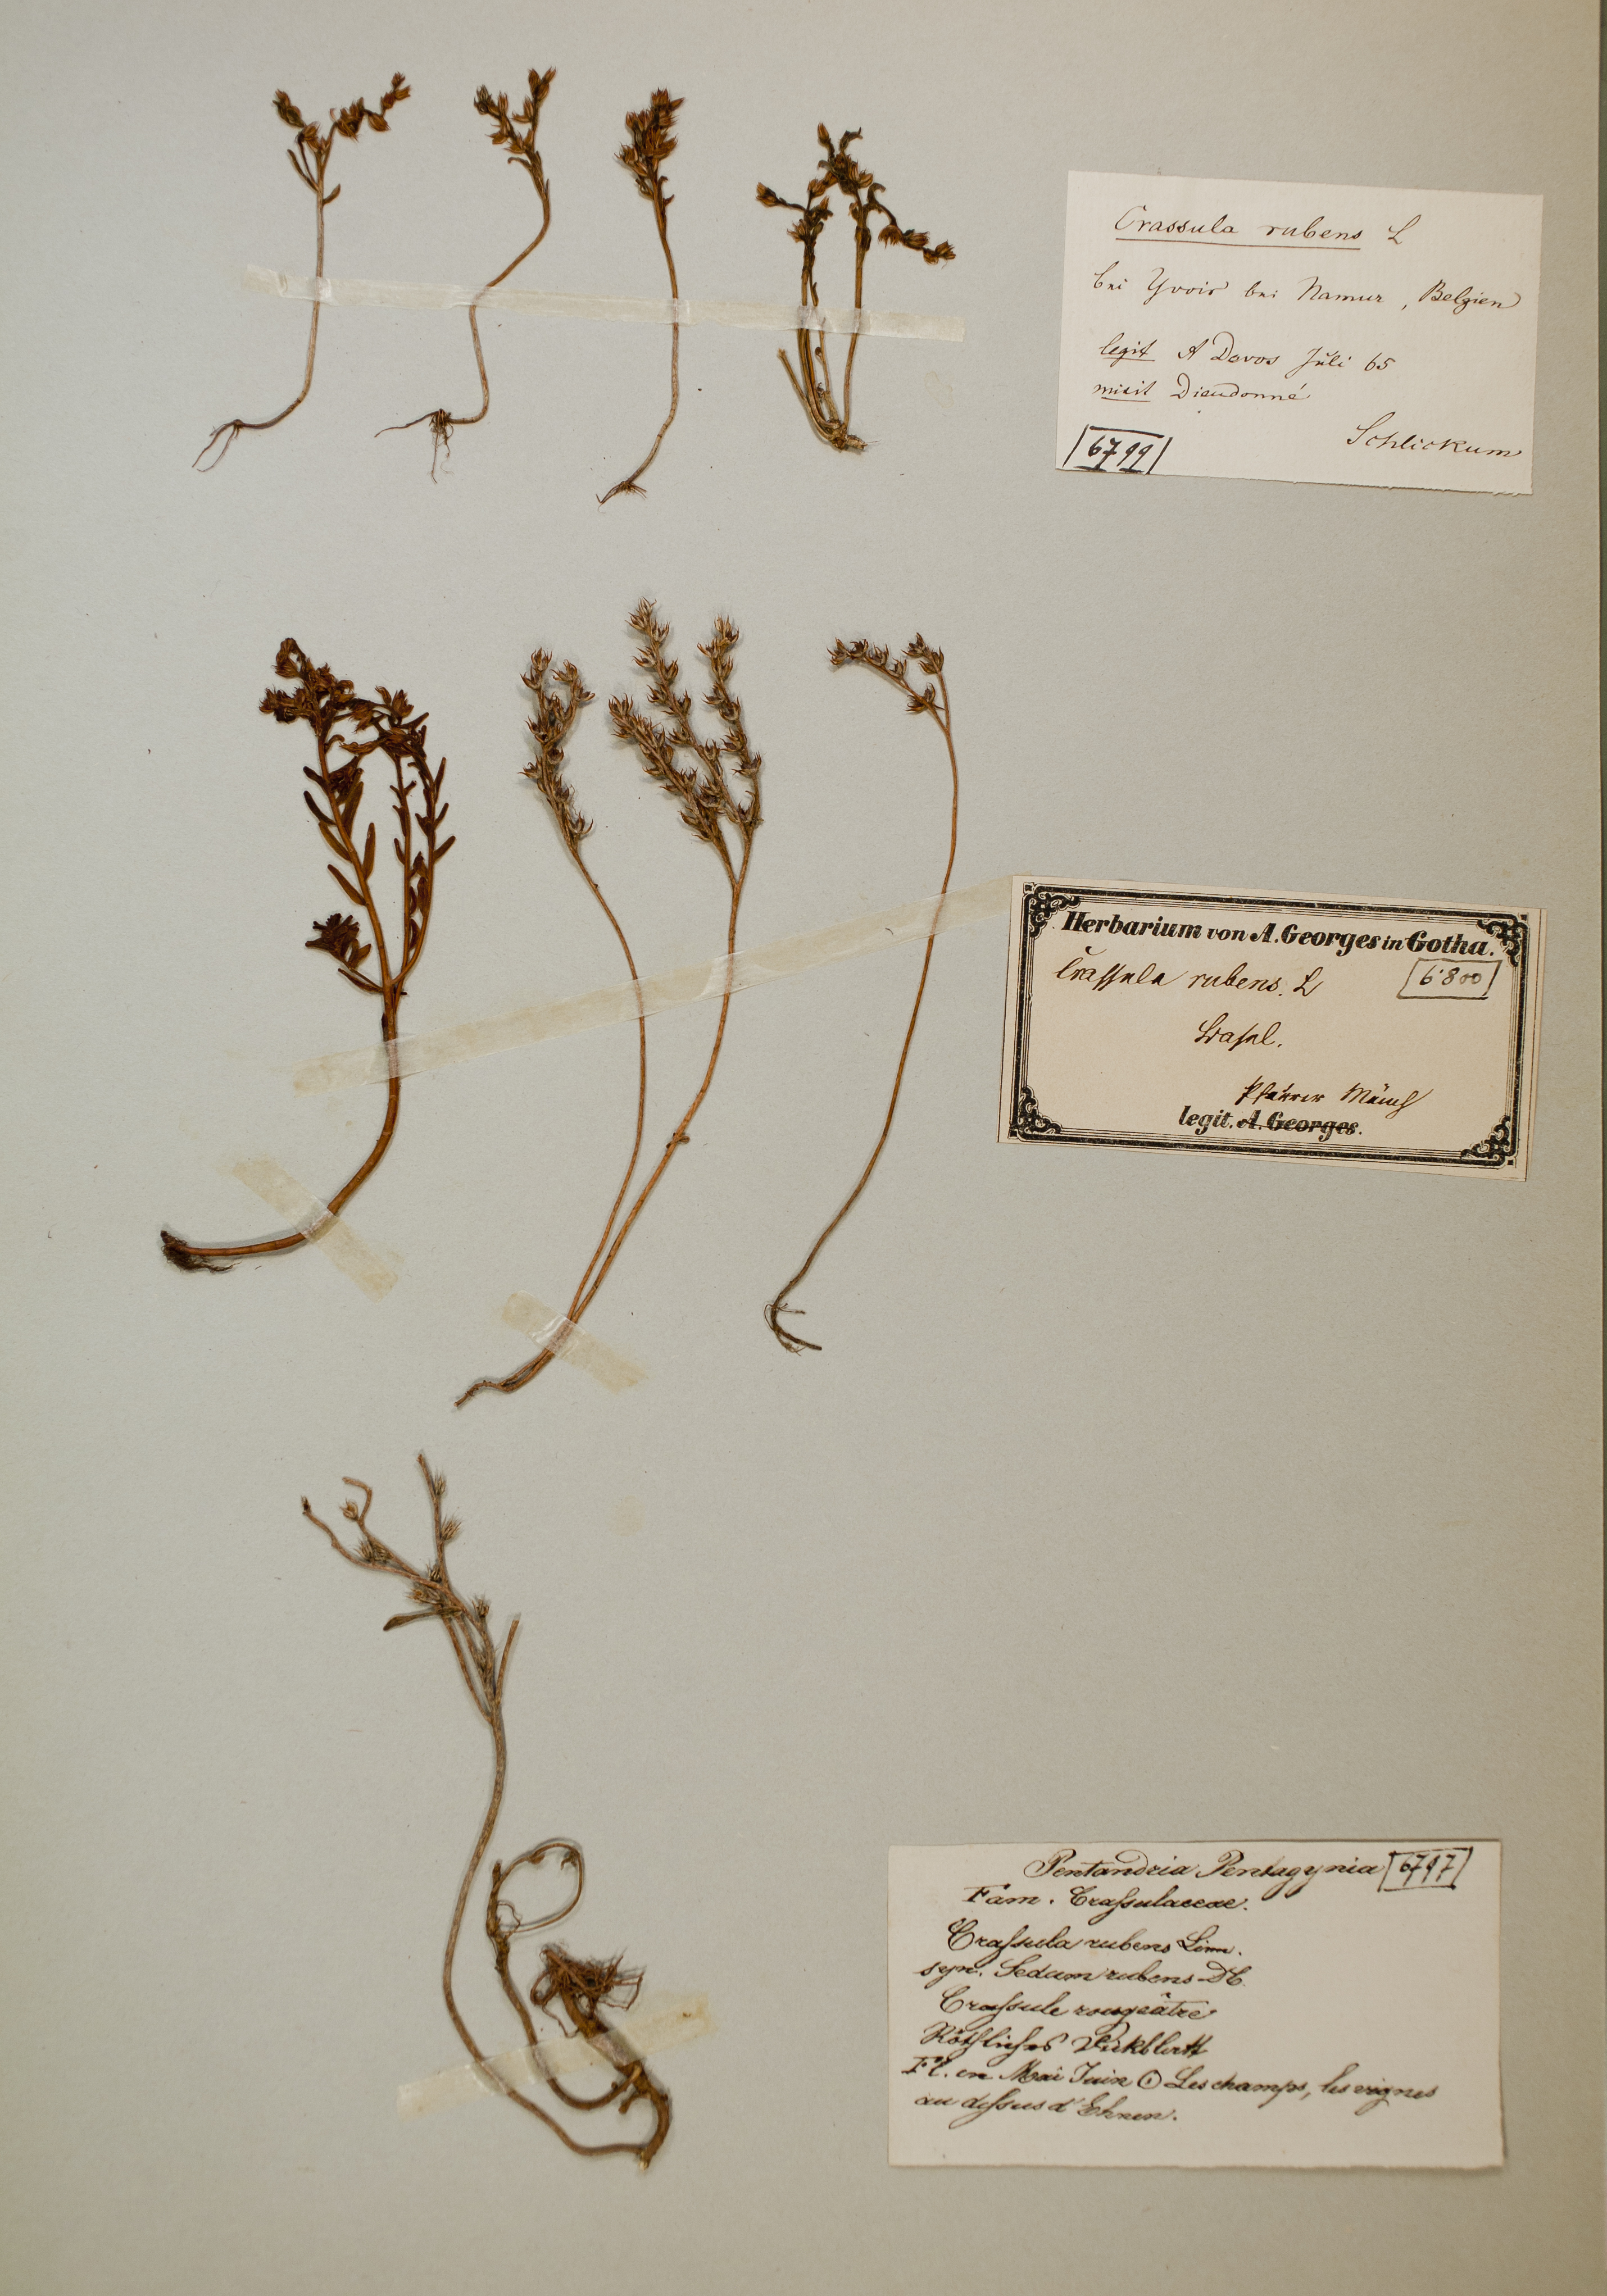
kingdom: Plantae
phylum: Tracheophyta
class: Magnoliopsida
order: Saxifragales
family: Crassulaceae
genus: Sedum
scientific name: Sedum rubens
